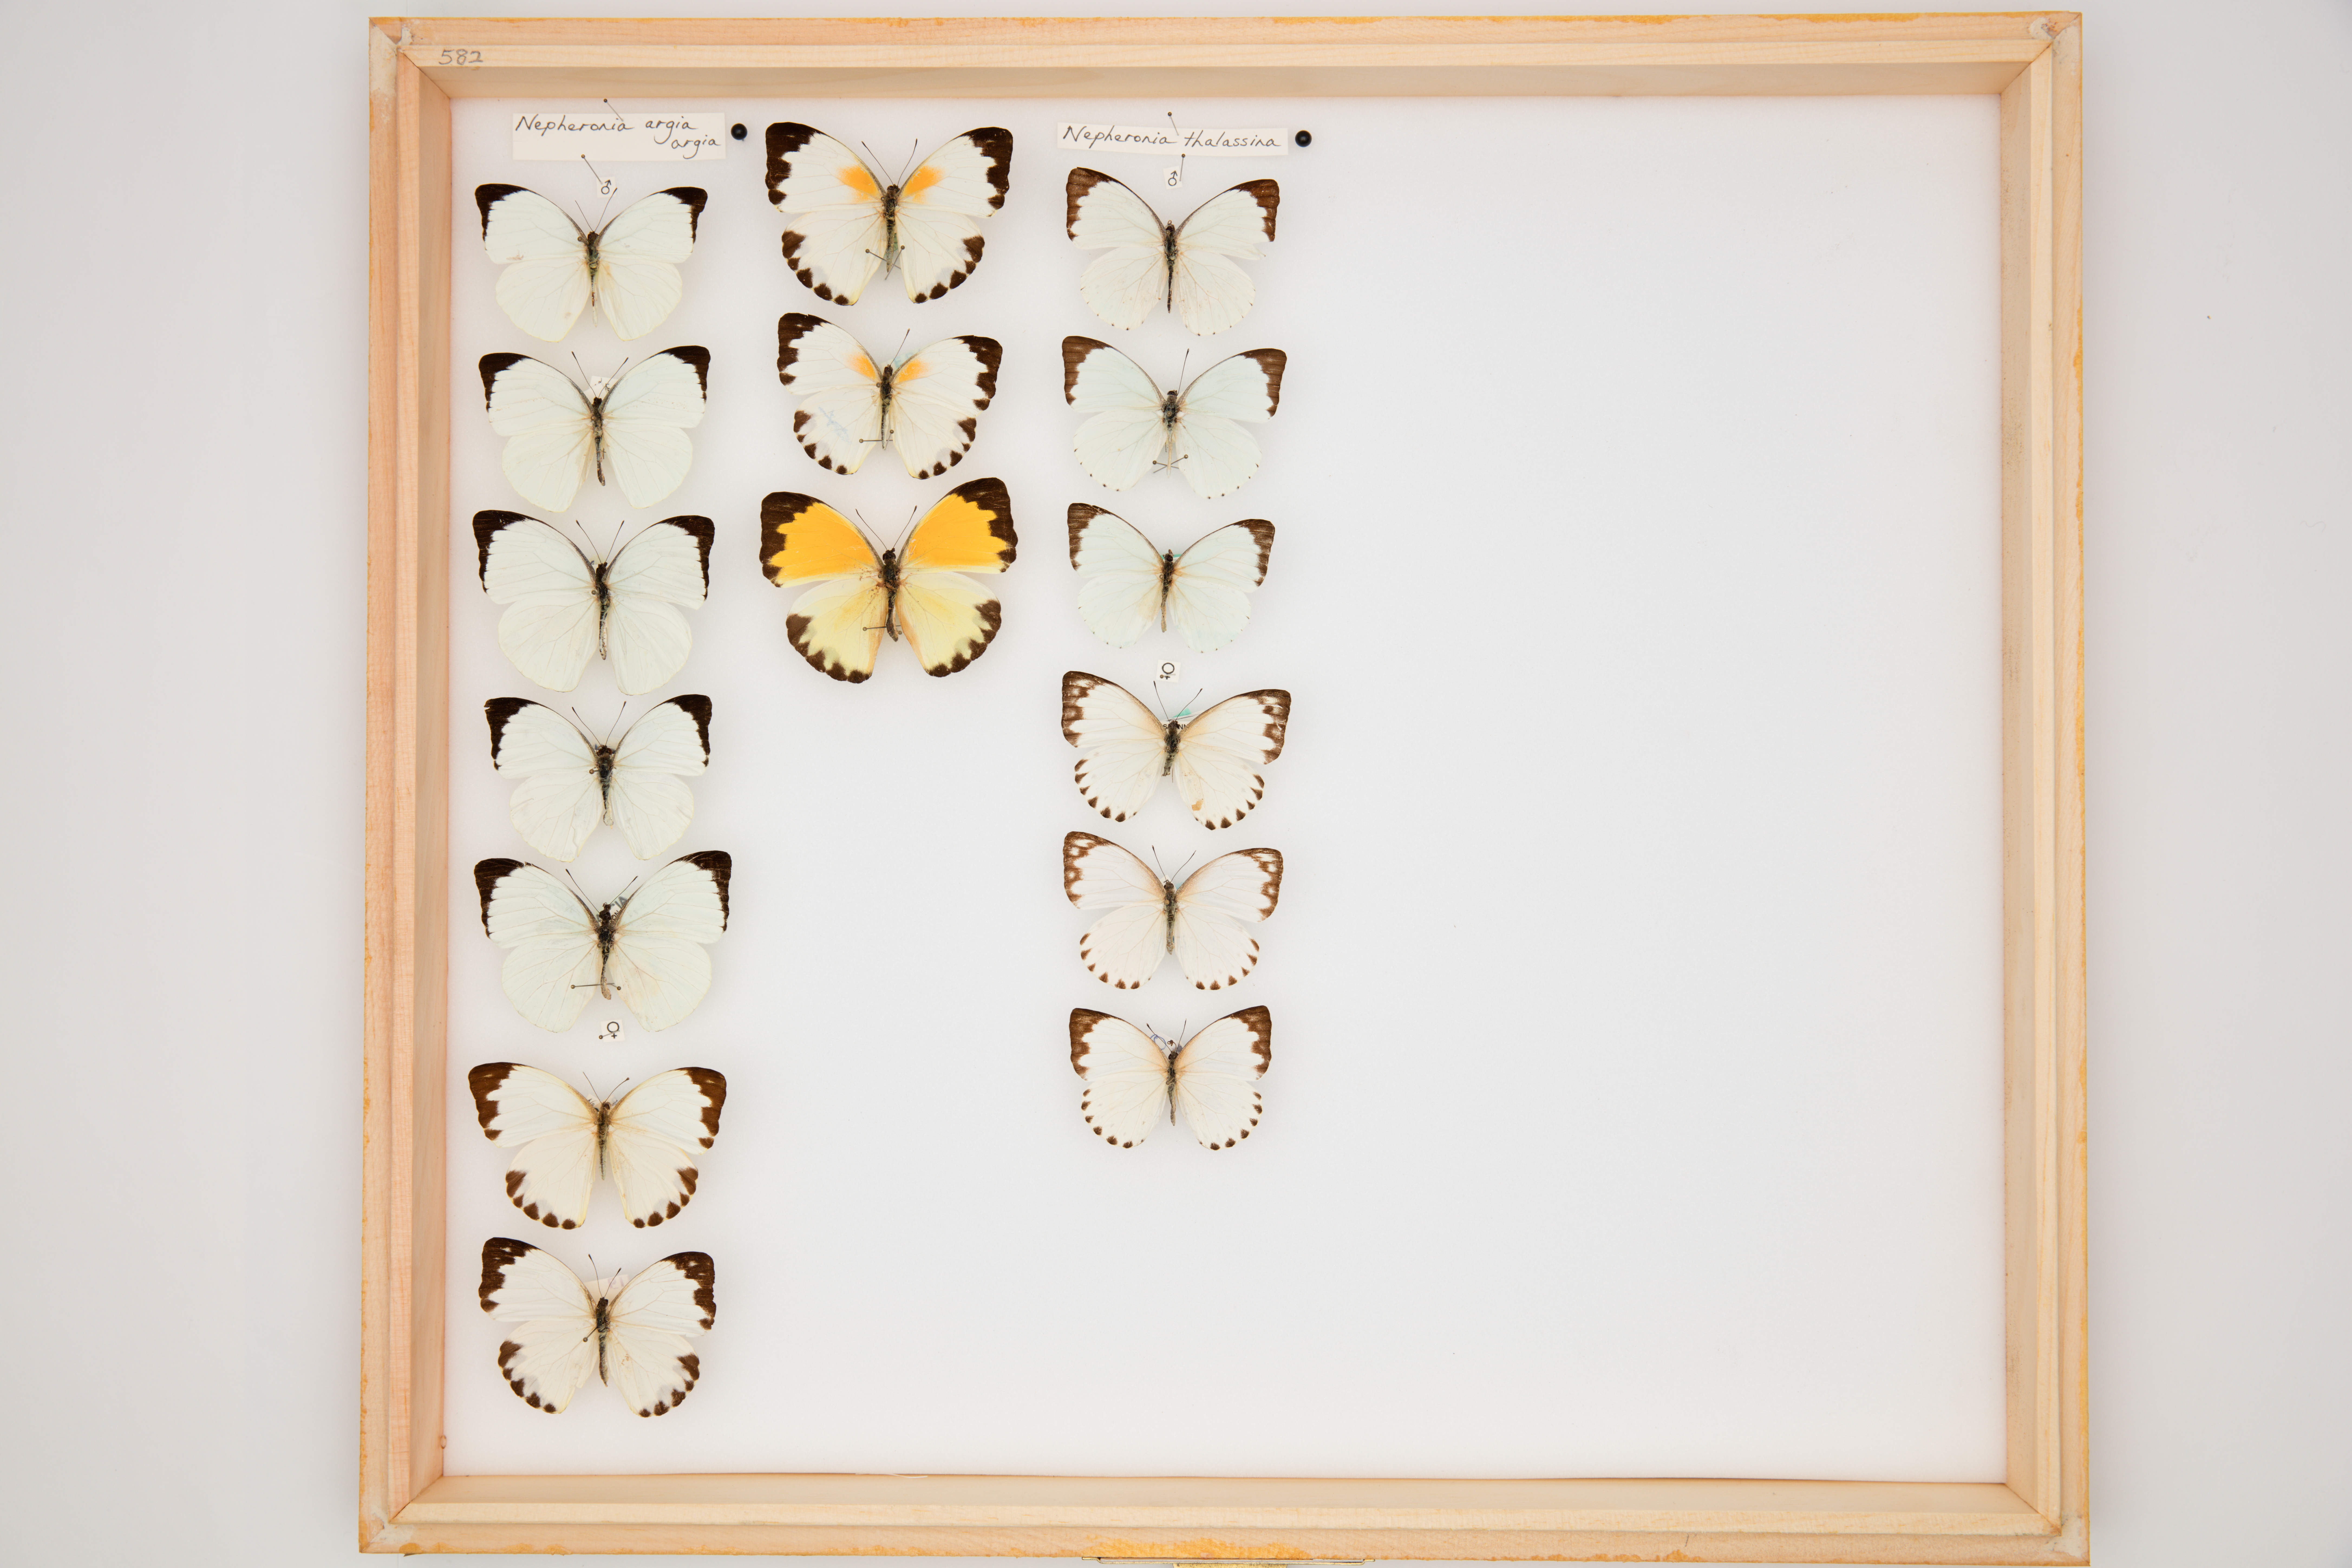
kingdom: Animalia
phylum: Arthropoda
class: Insecta
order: Lepidoptera
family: Pieridae
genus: Nepheronia
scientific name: Nepheronia thalassina
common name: Cambridge vagrant
